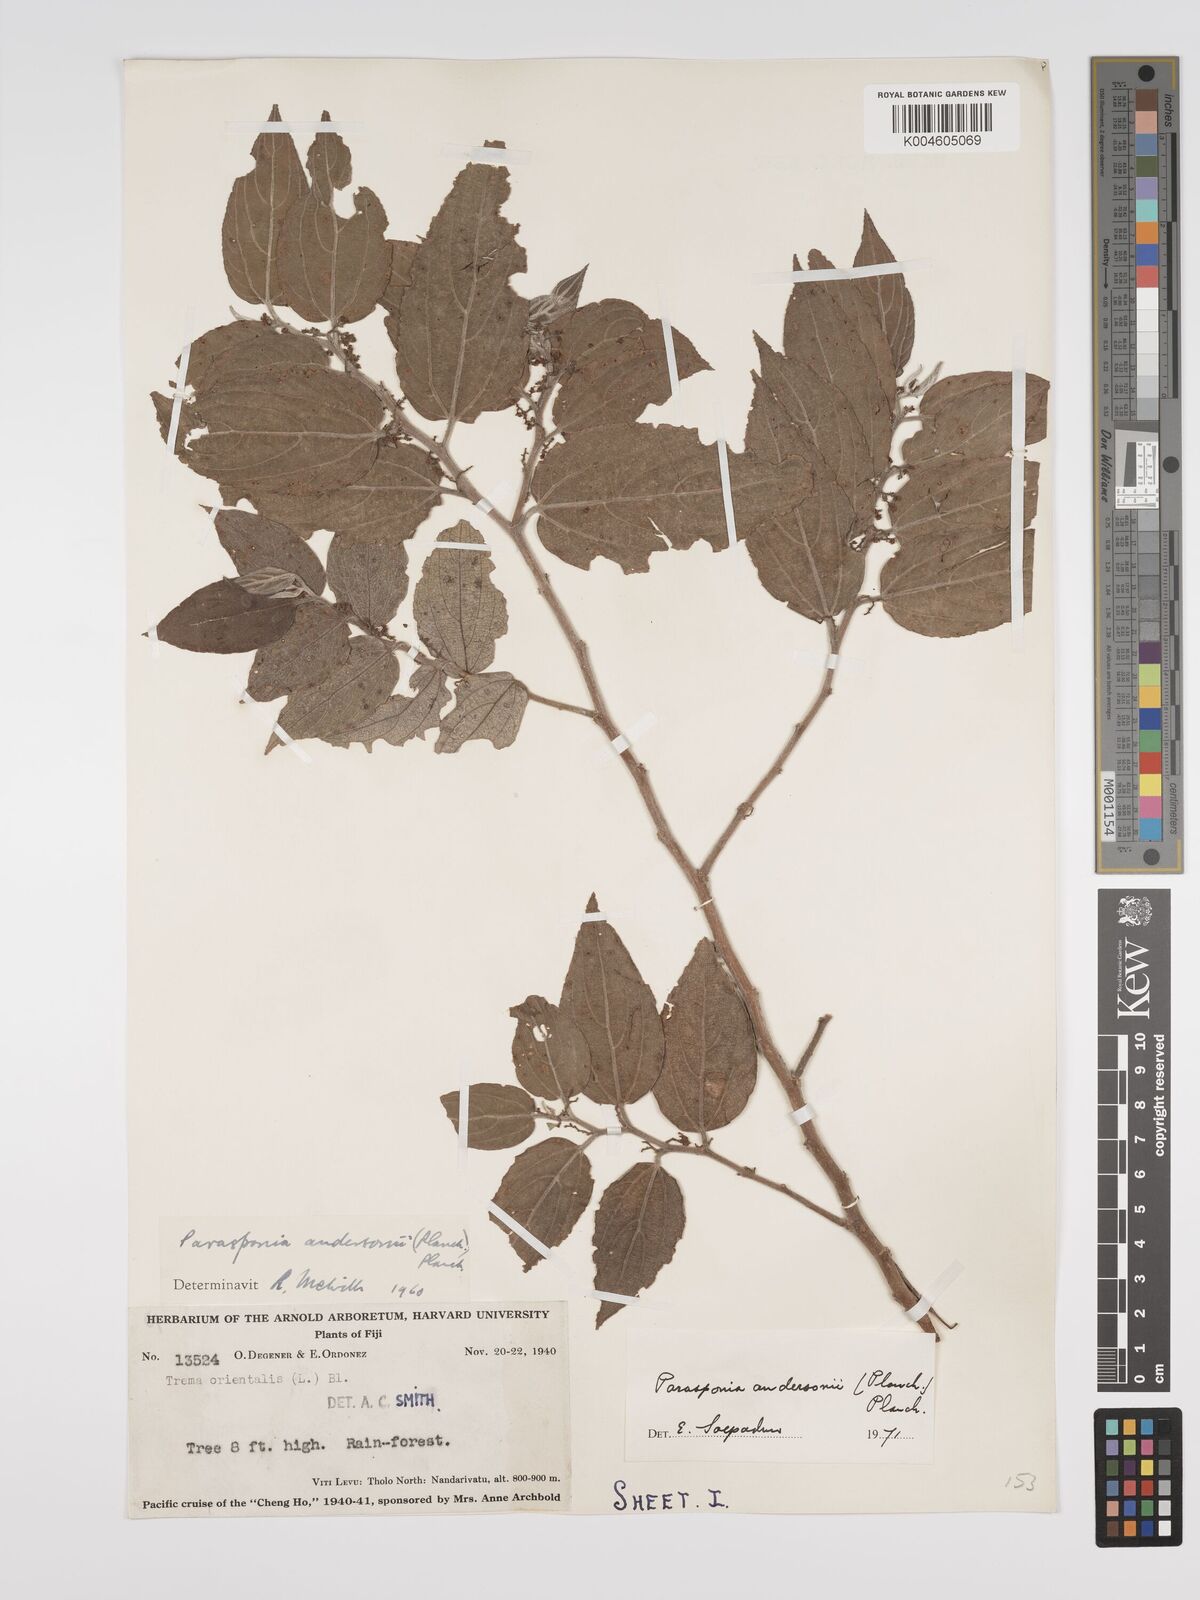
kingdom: Plantae
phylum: Tracheophyta
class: Magnoliopsida
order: Rosales
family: Cannabaceae
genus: Trema
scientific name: Trema andersonii
